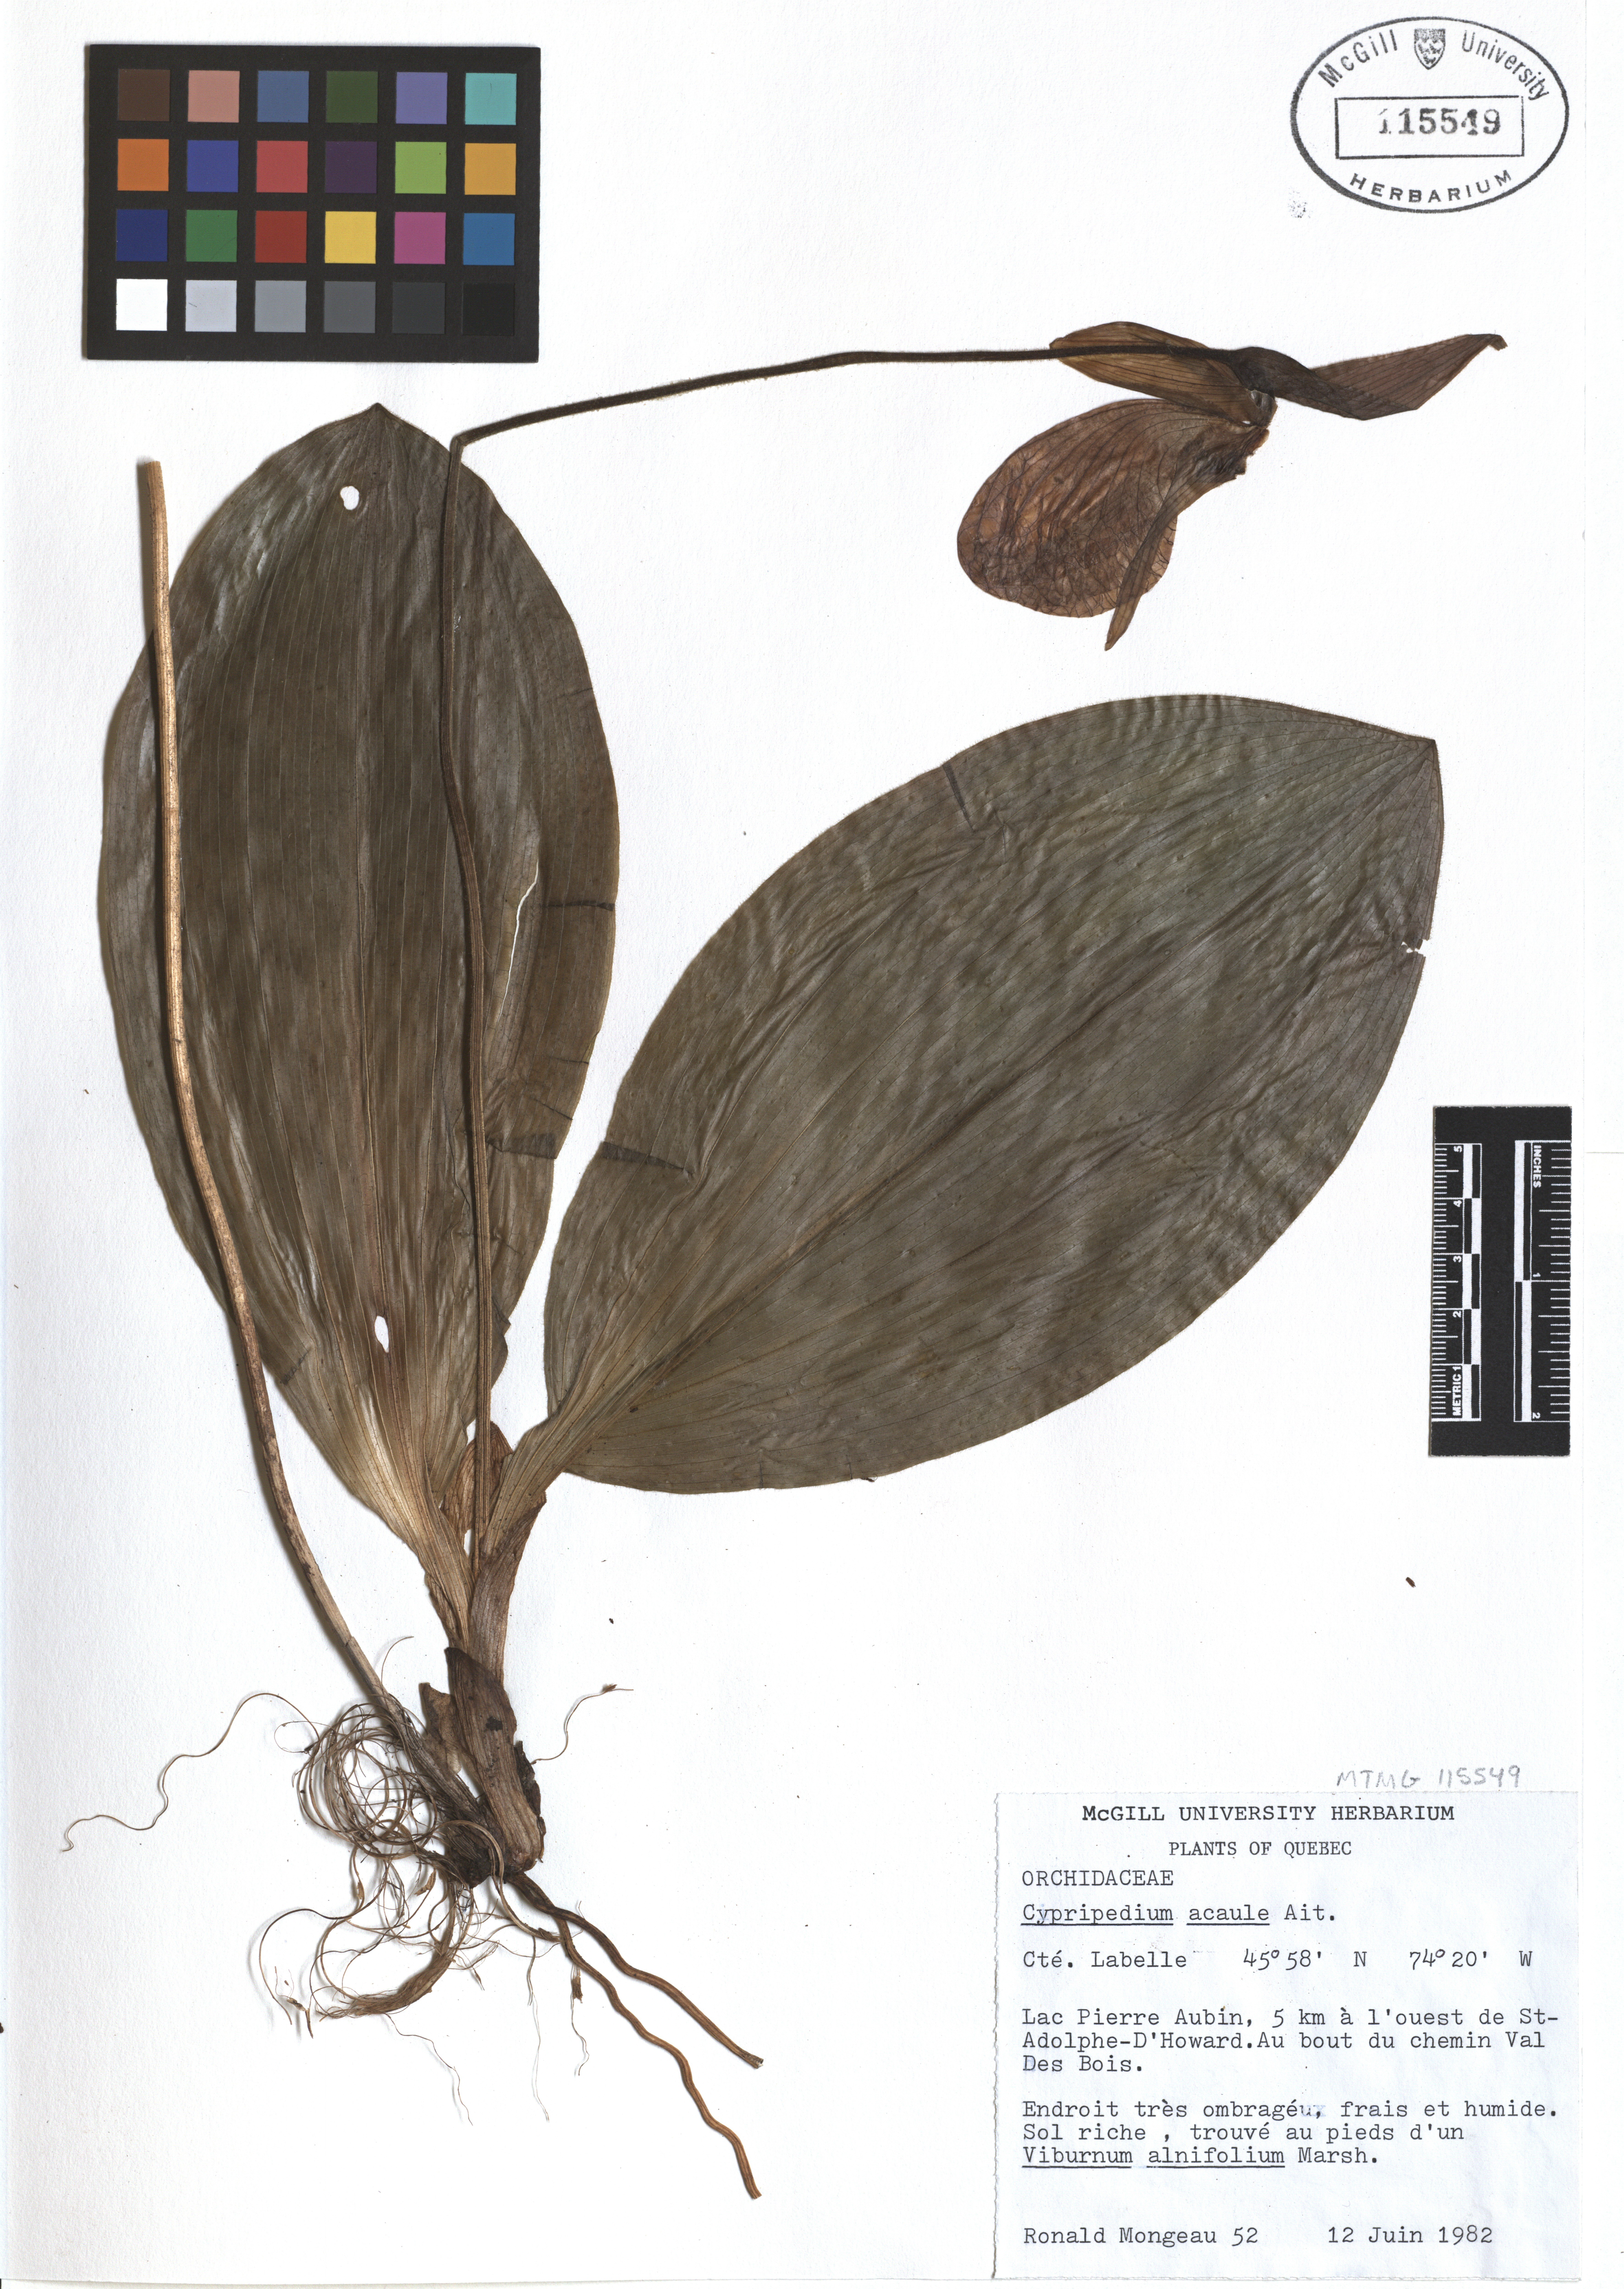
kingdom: Plantae
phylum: Tracheophyta
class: Magnoliopsida
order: Lamiales
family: Lamiaceae
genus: Monarda
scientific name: Monarda clinopodia
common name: Basil beebalm
